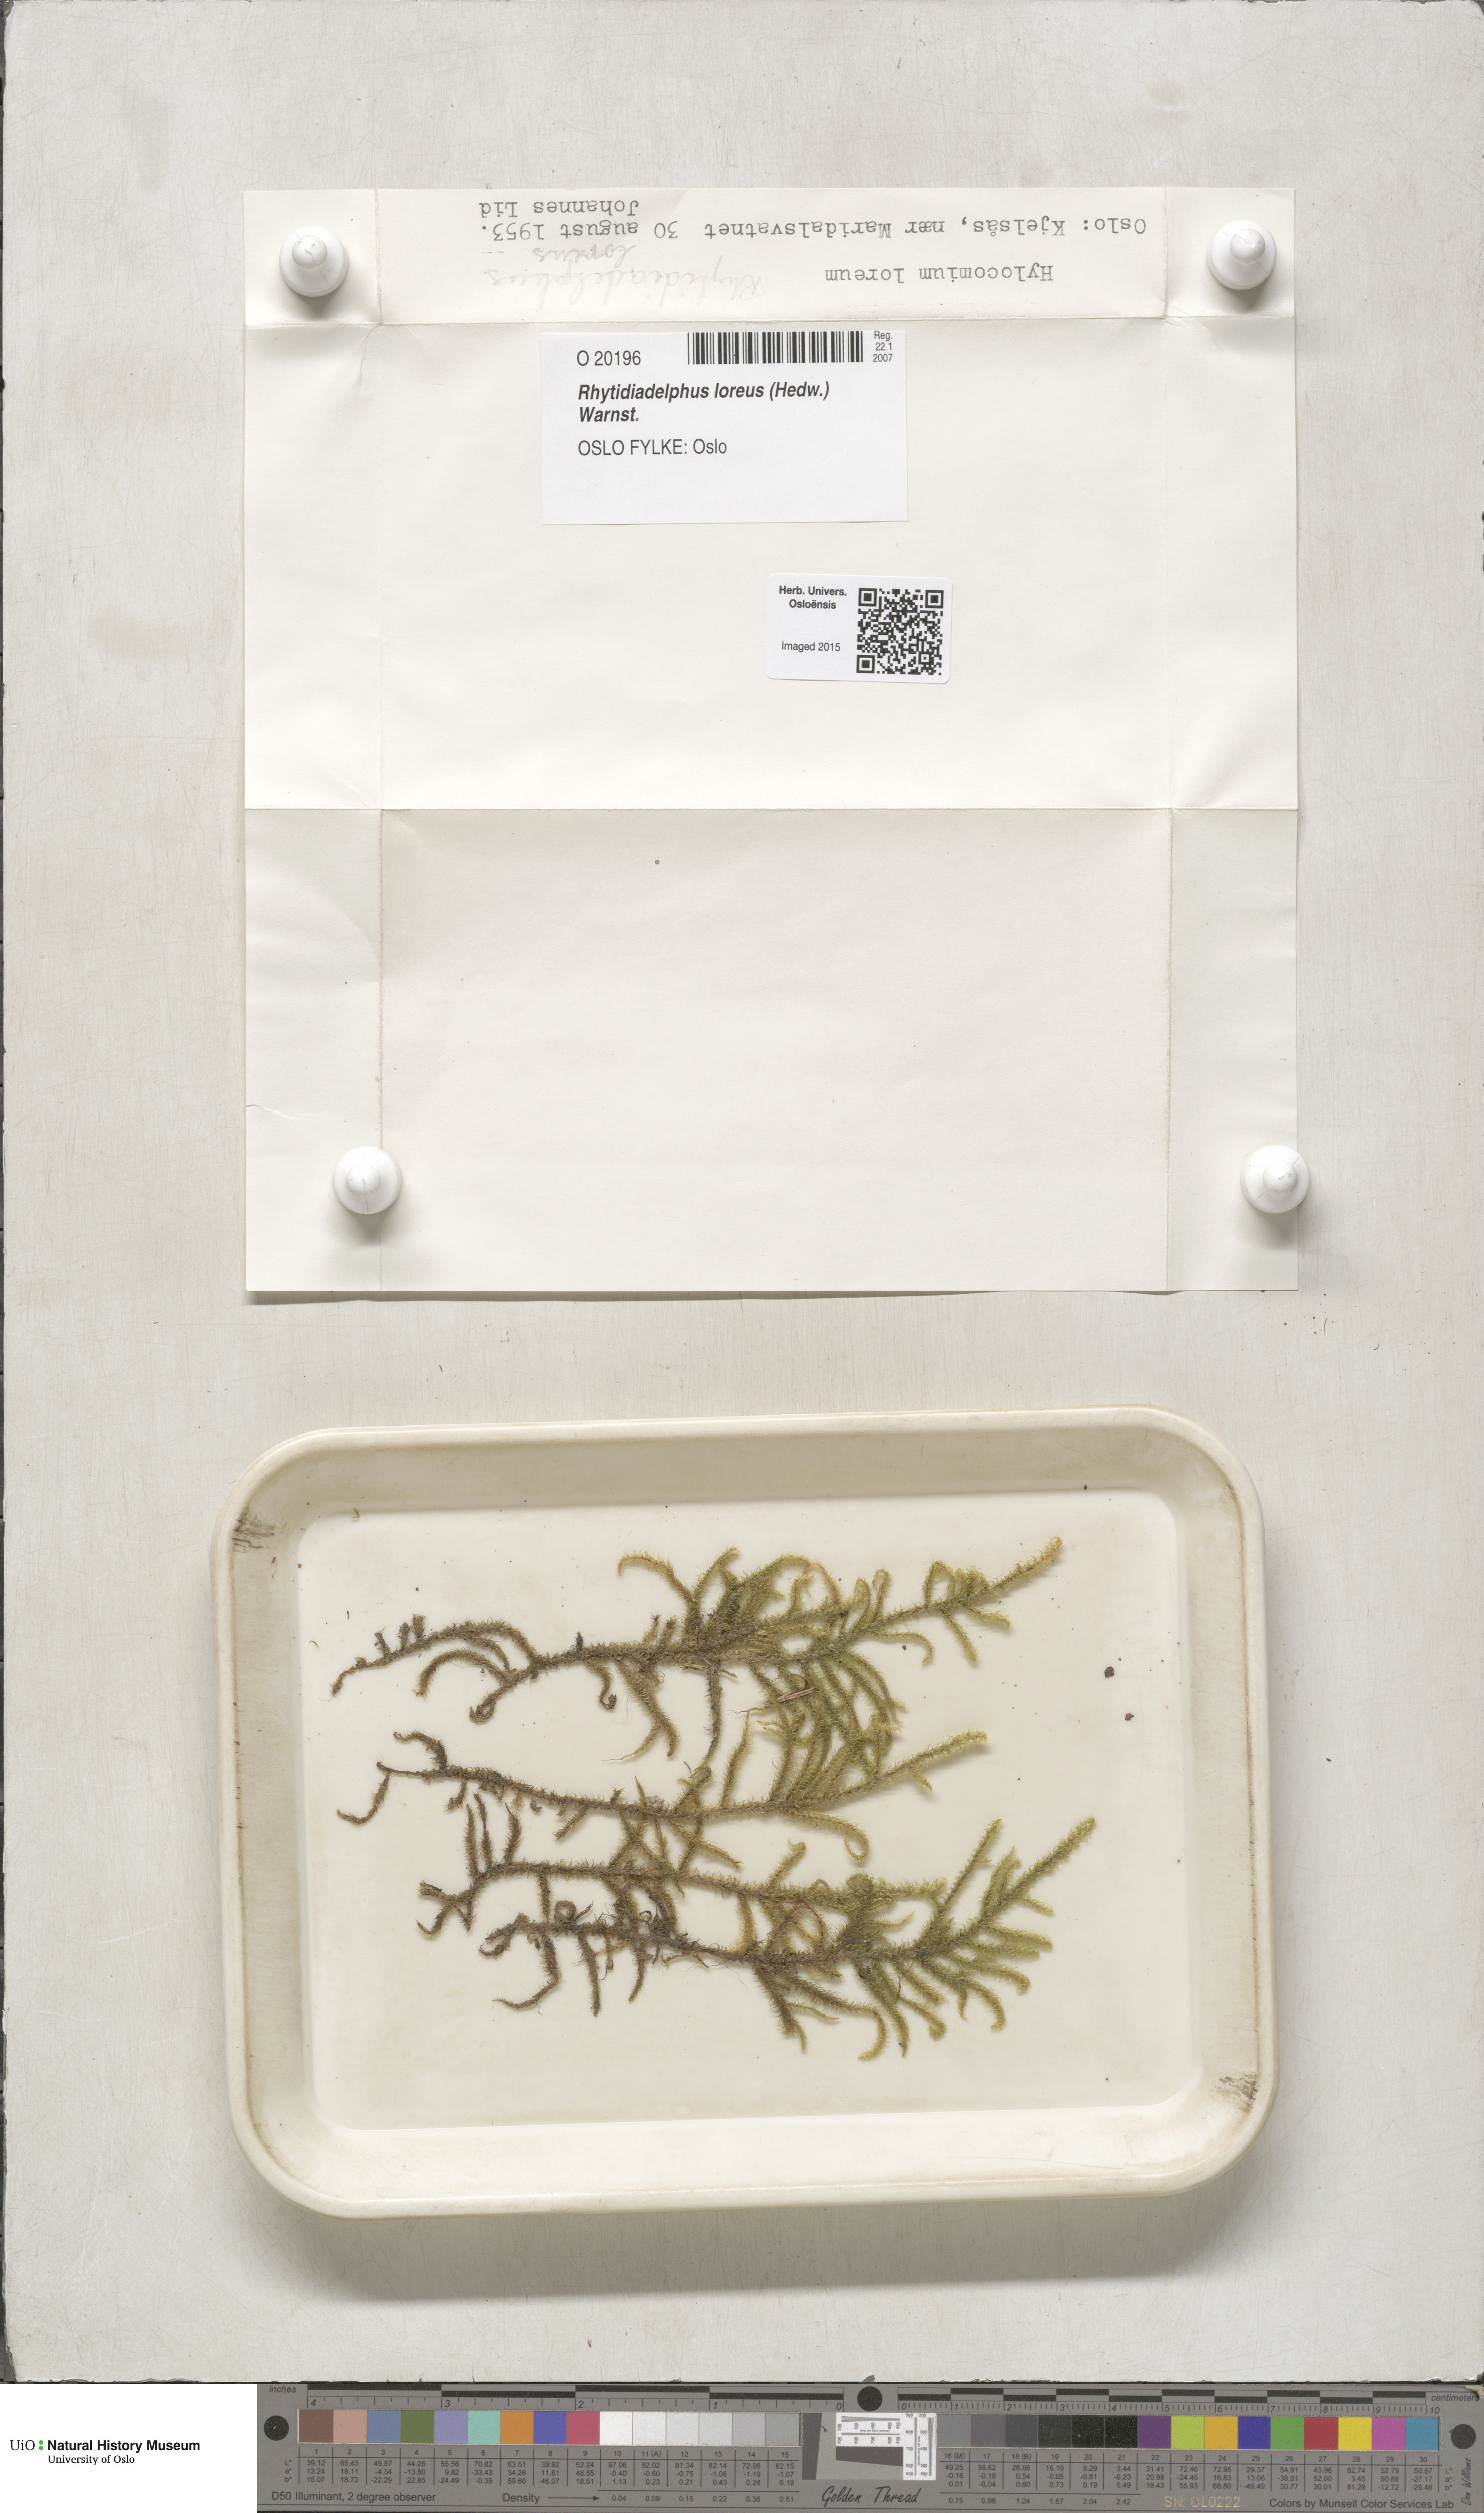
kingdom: Plantae
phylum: Bryophyta
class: Bryopsida
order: Hypnales
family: Hylocomiaceae
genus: Rhytidiadelphus
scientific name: Rhytidiadelphus loreus
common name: Lanky moss
